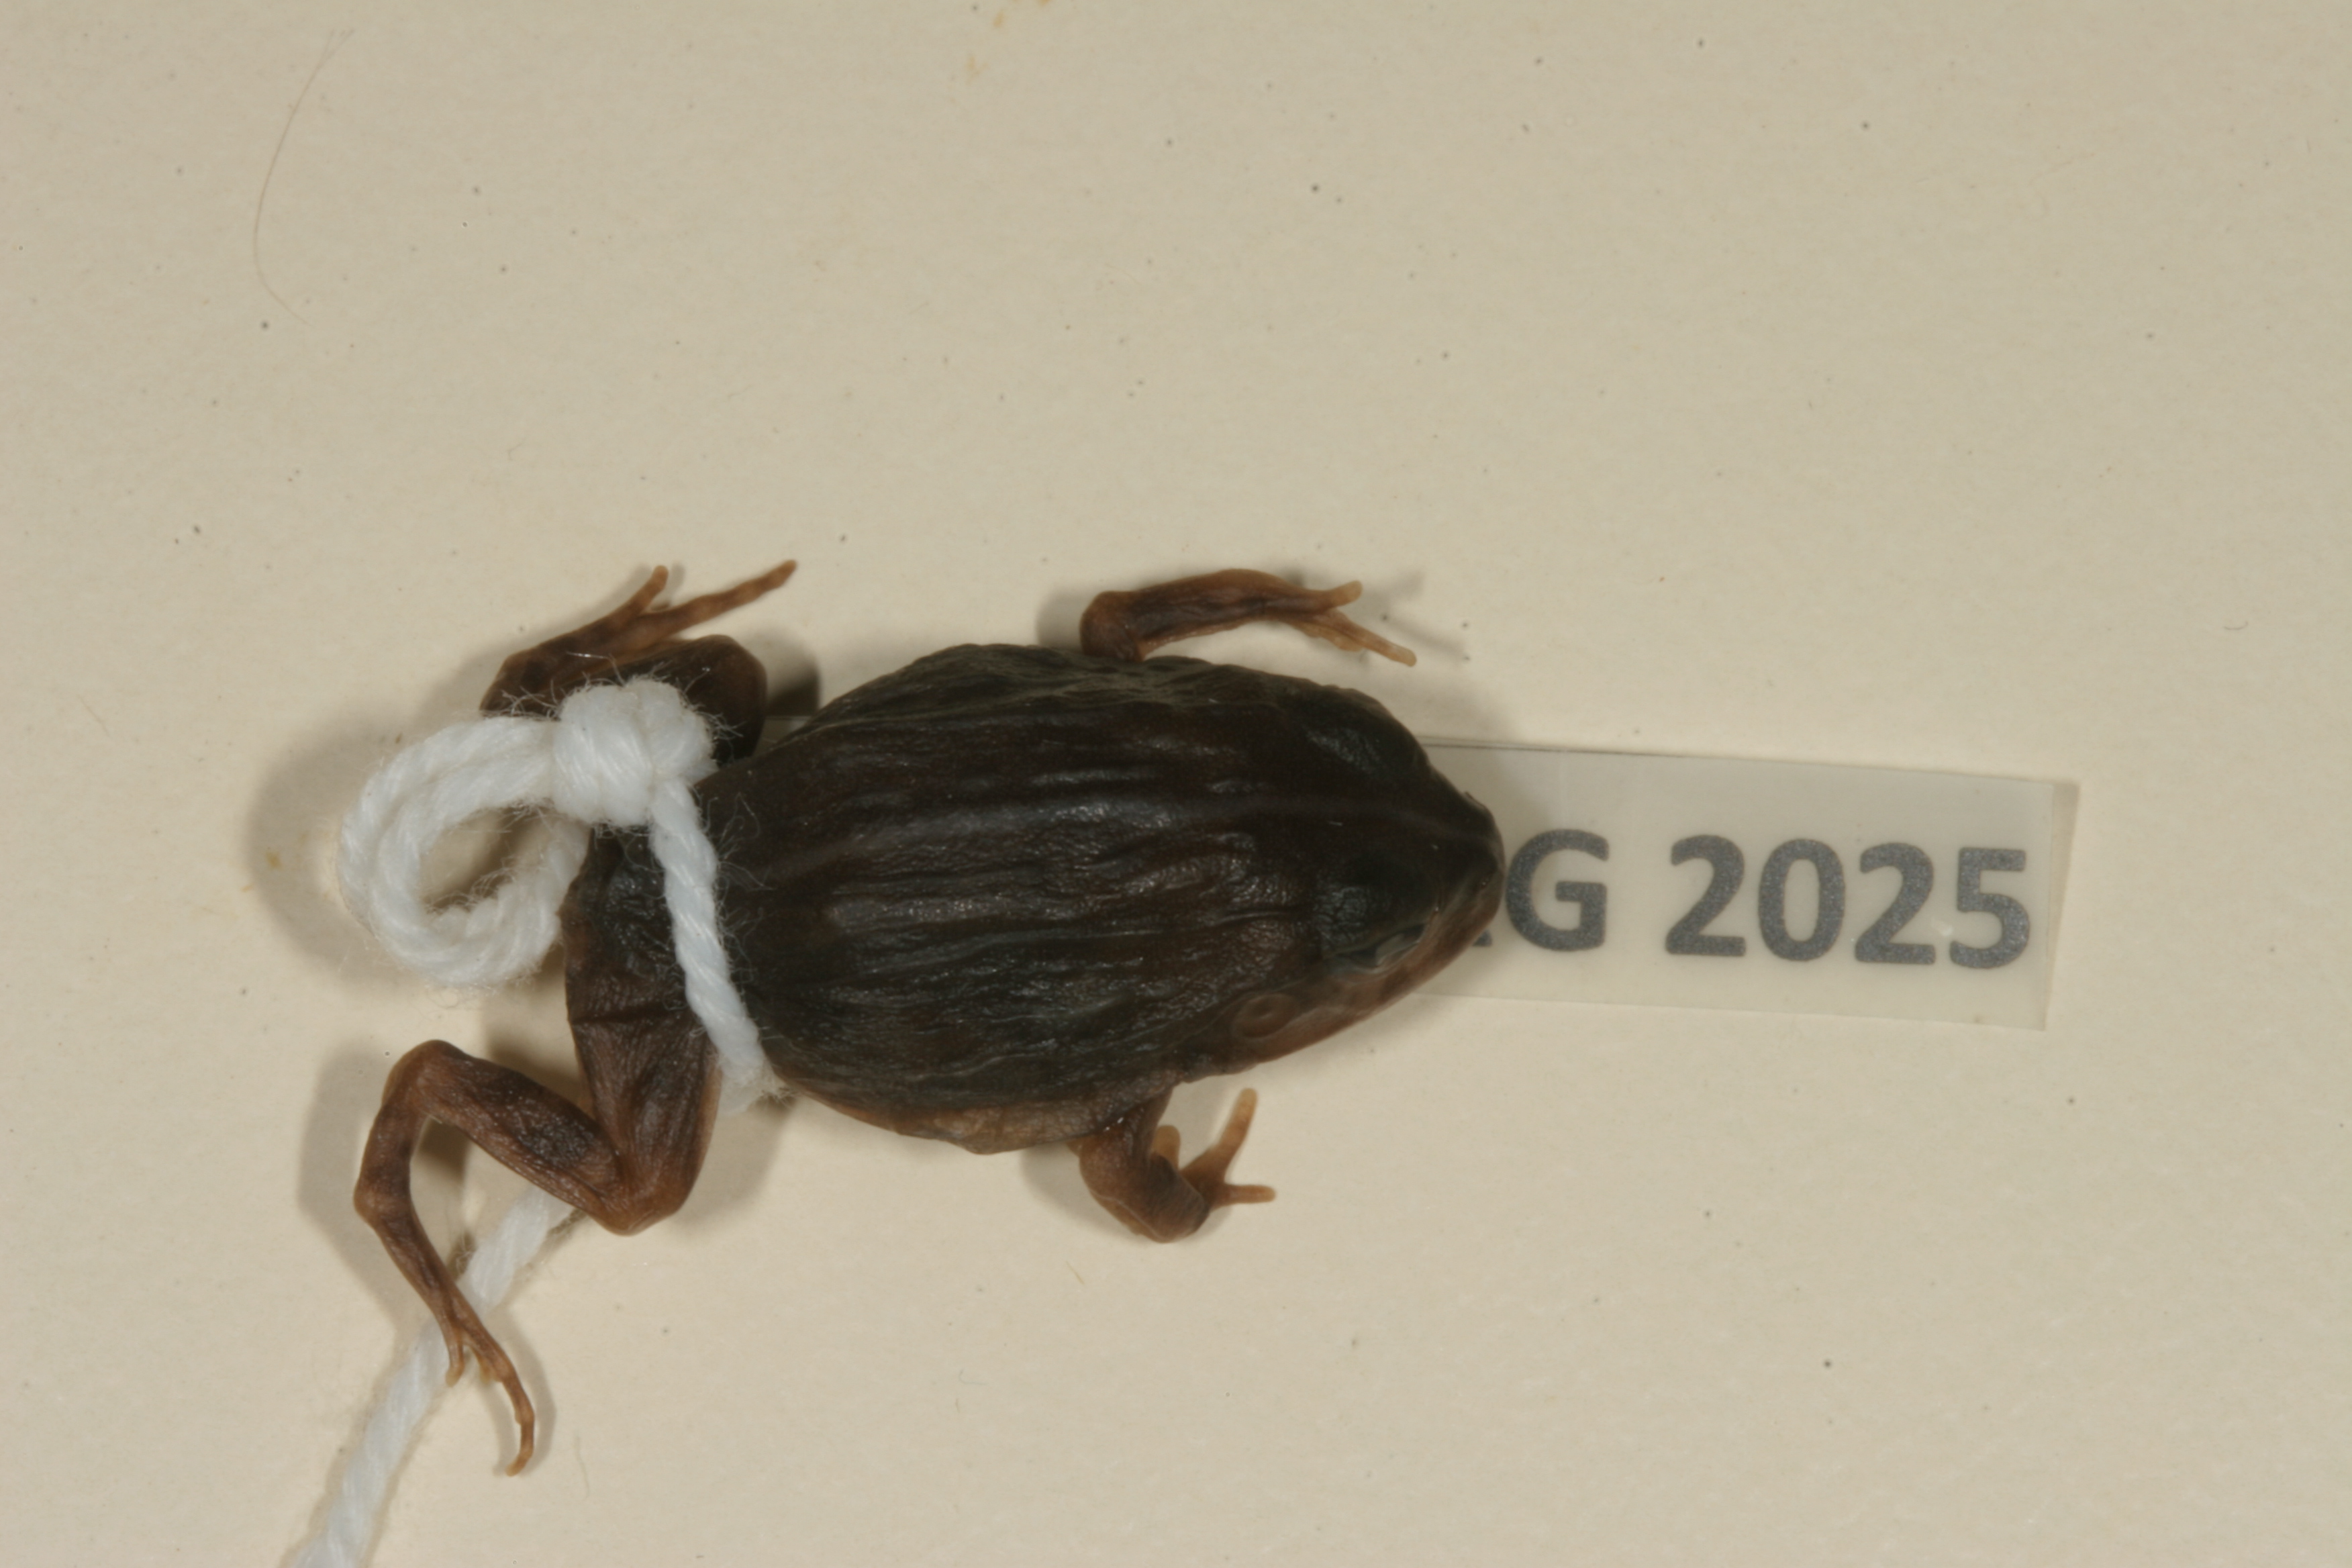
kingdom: Animalia
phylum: Chordata
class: Amphibia
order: Anura
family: Pyxicephalidae
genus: Pyxicephalus
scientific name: Pyxicephalus edulis
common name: Peter's bullfrog
